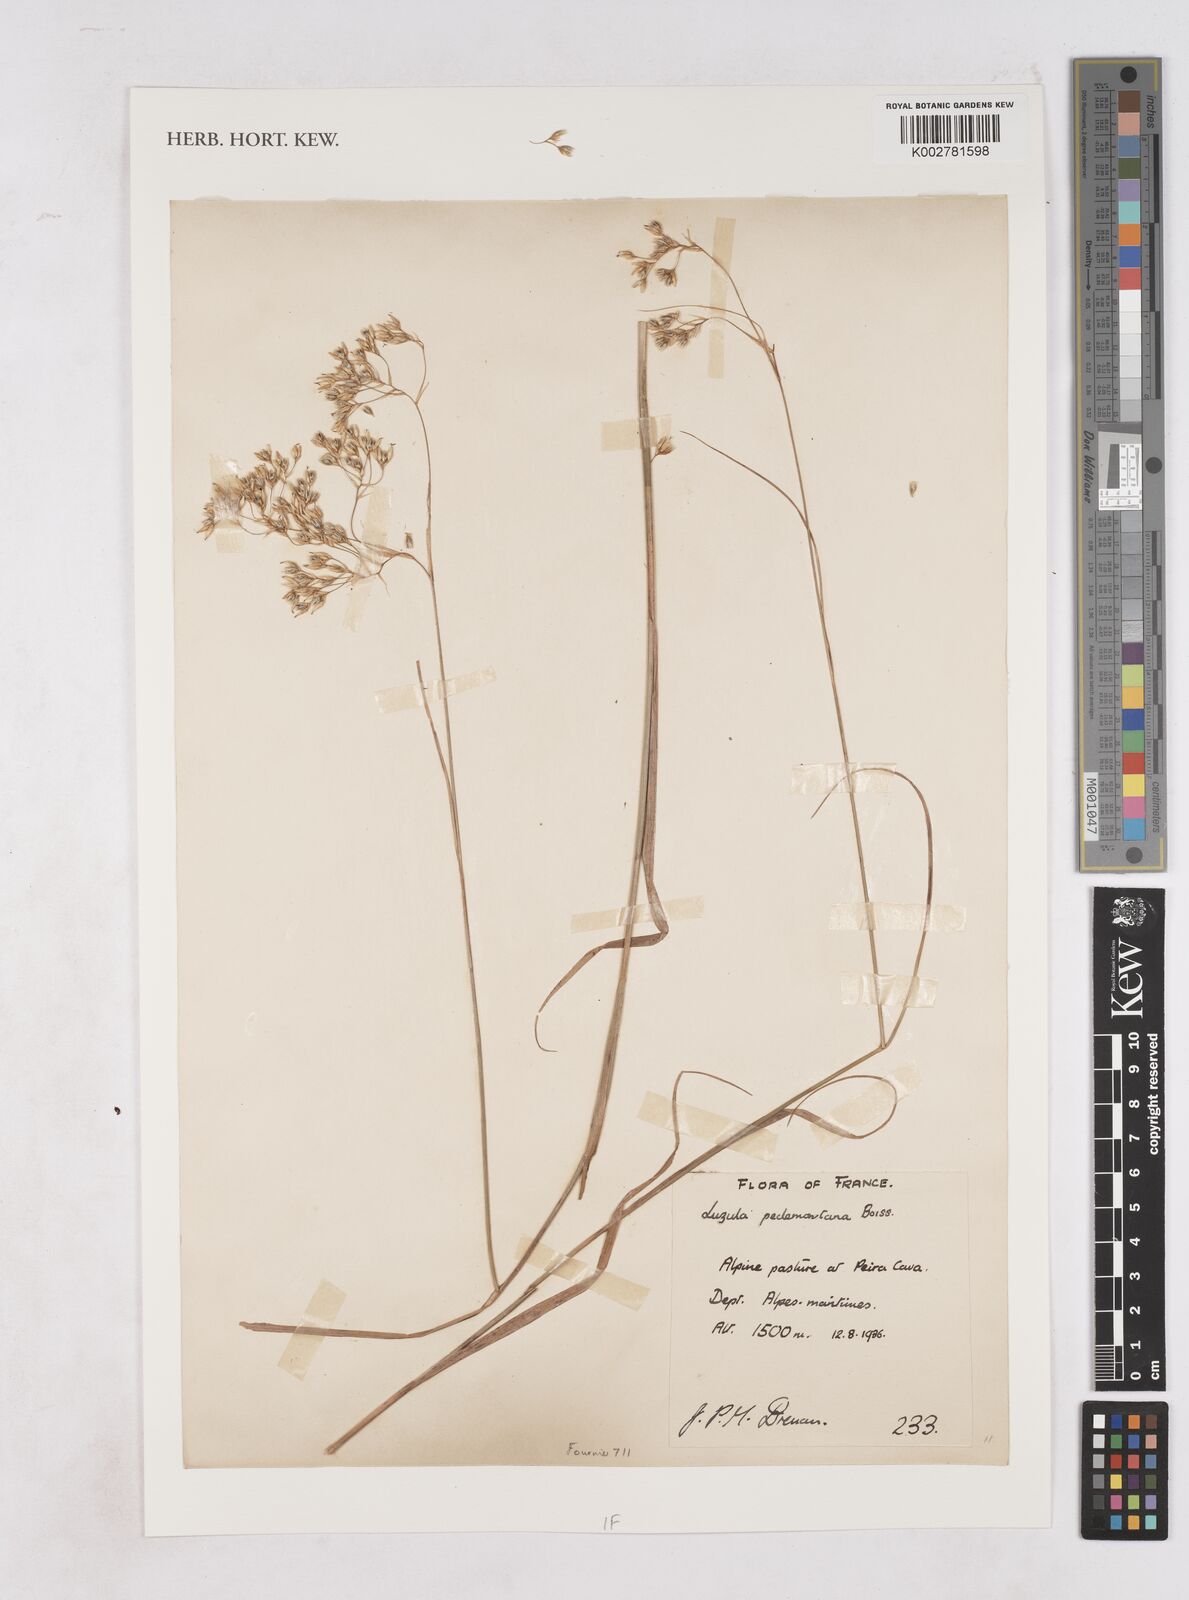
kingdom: Plantae
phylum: Tracheophyta
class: Liliopsida
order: Poales
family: Juncaceae
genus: Luzula
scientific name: Luzula pedemontana
